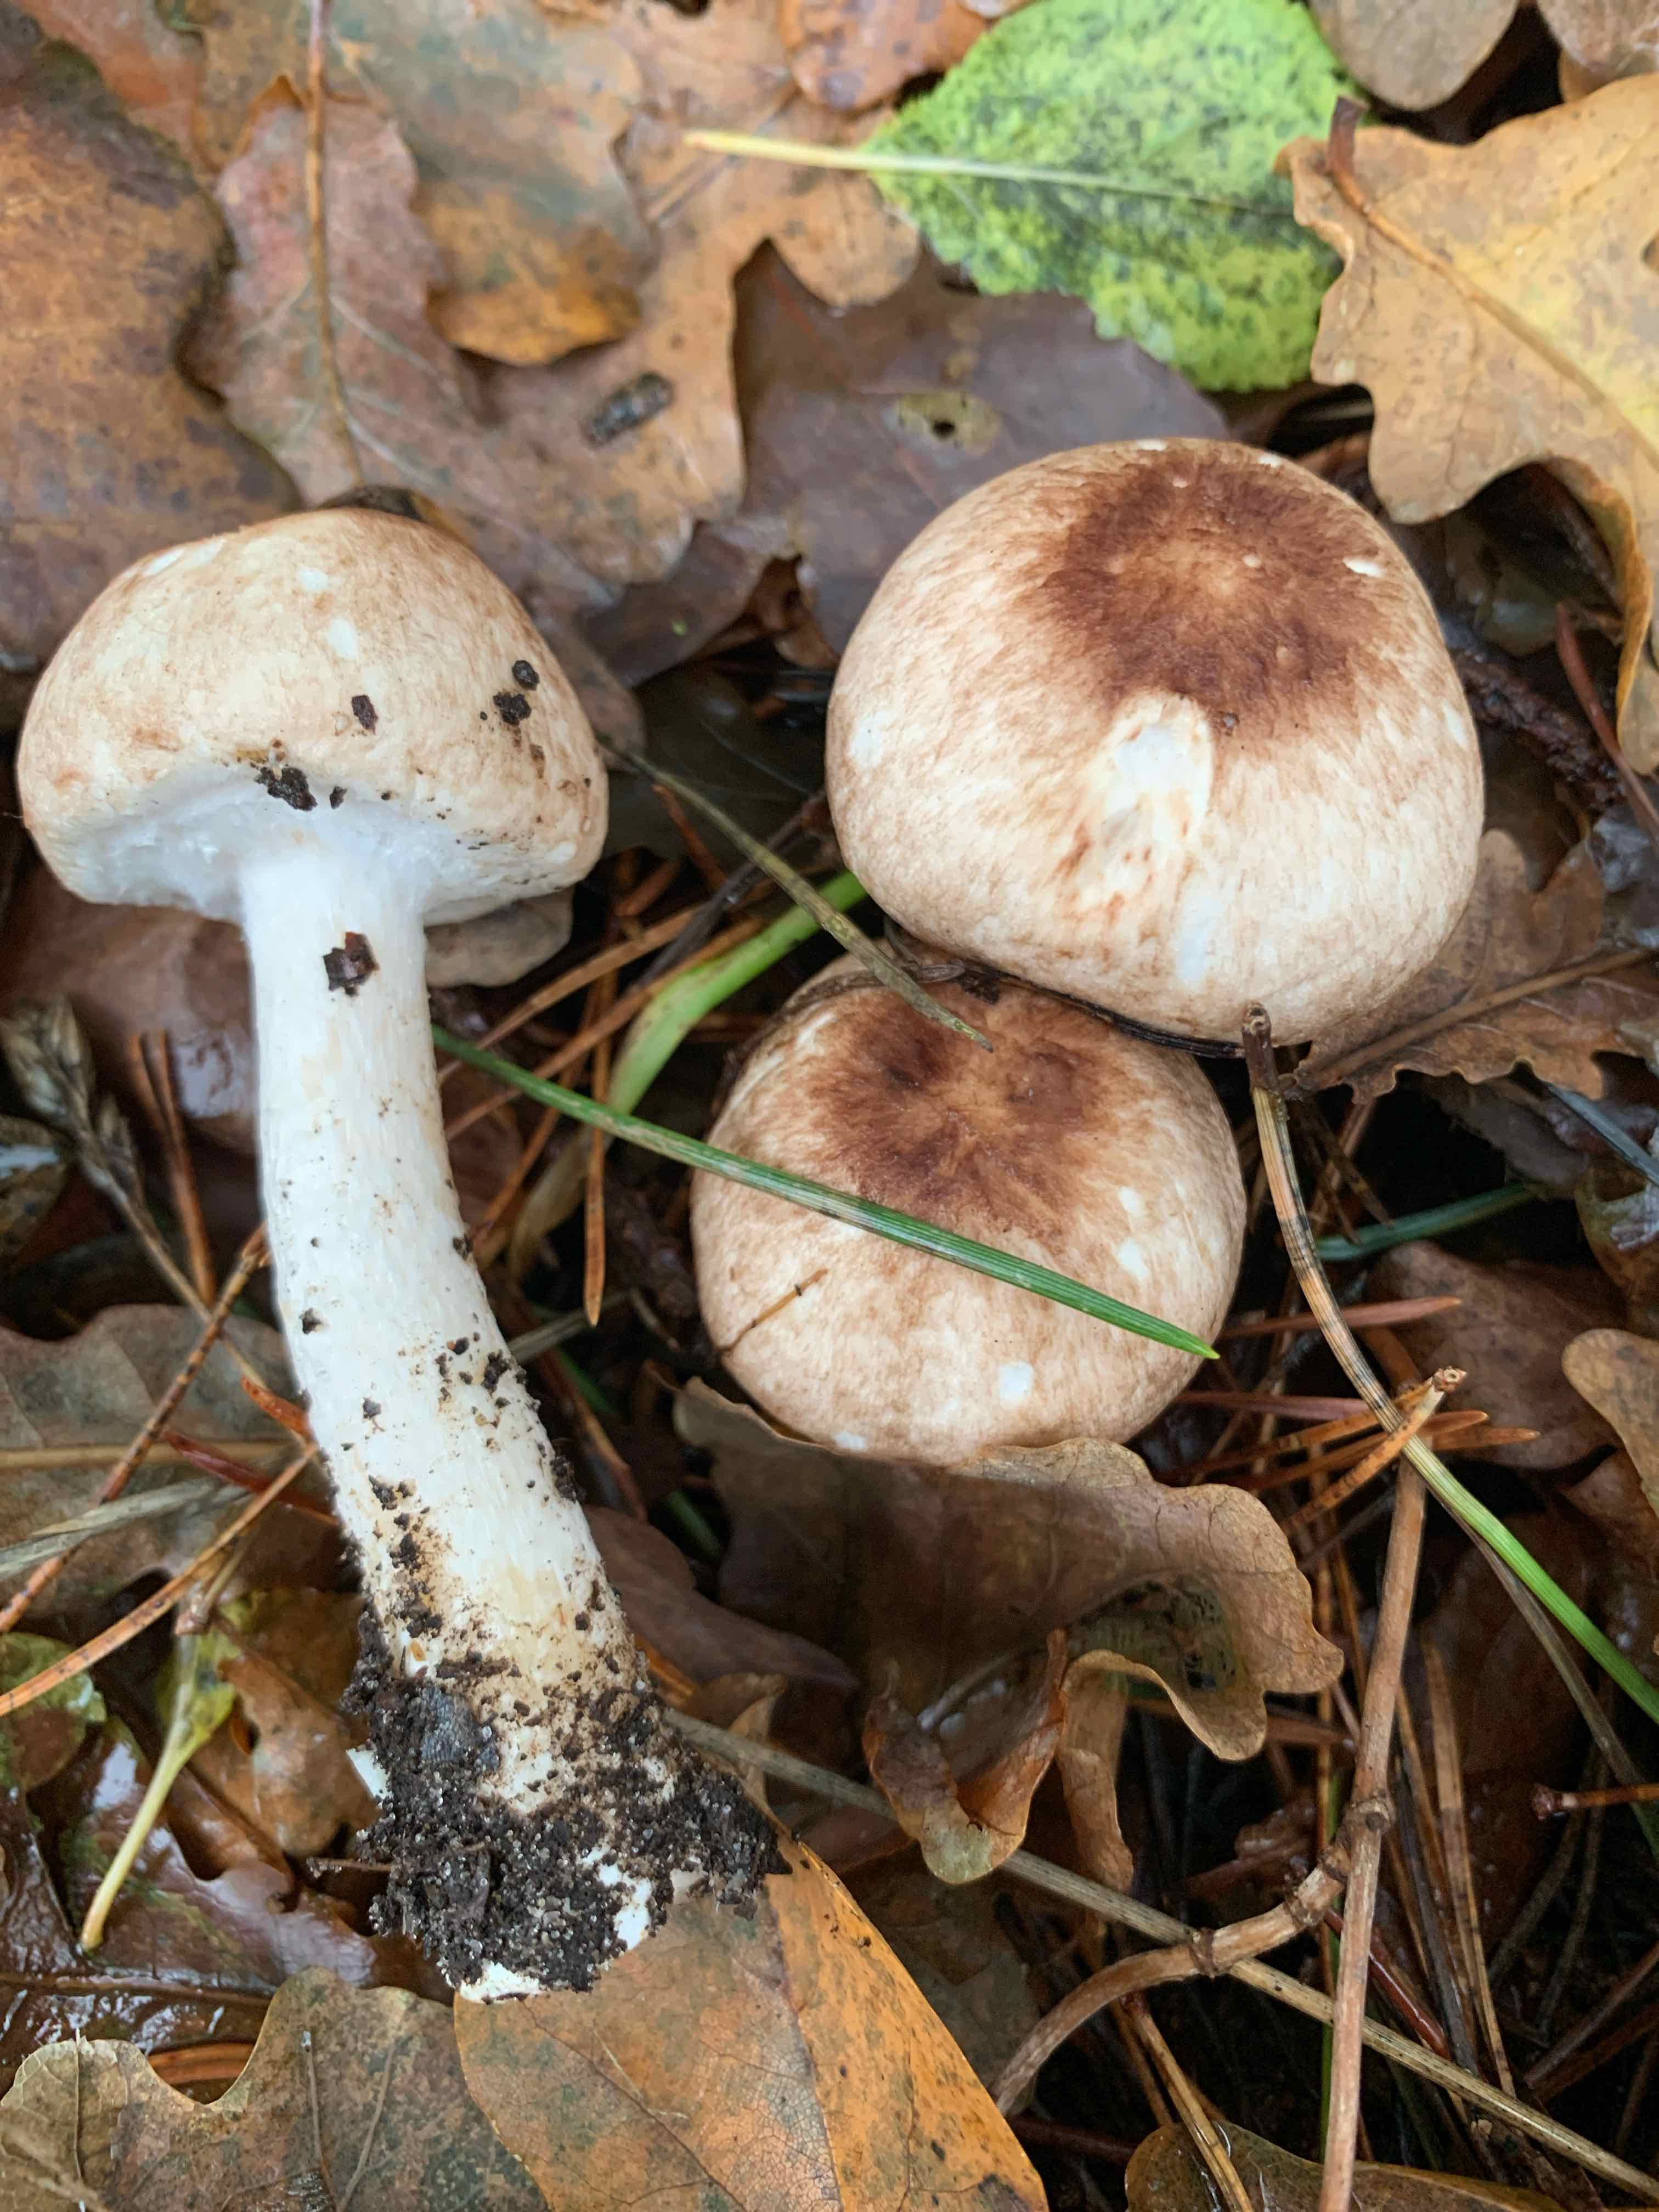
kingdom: Fungi
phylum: Basidiomycota
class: Agaricomycetes
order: Agaricales
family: Agaricaceae
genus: Agaricus
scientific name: Agaricus impudicus
